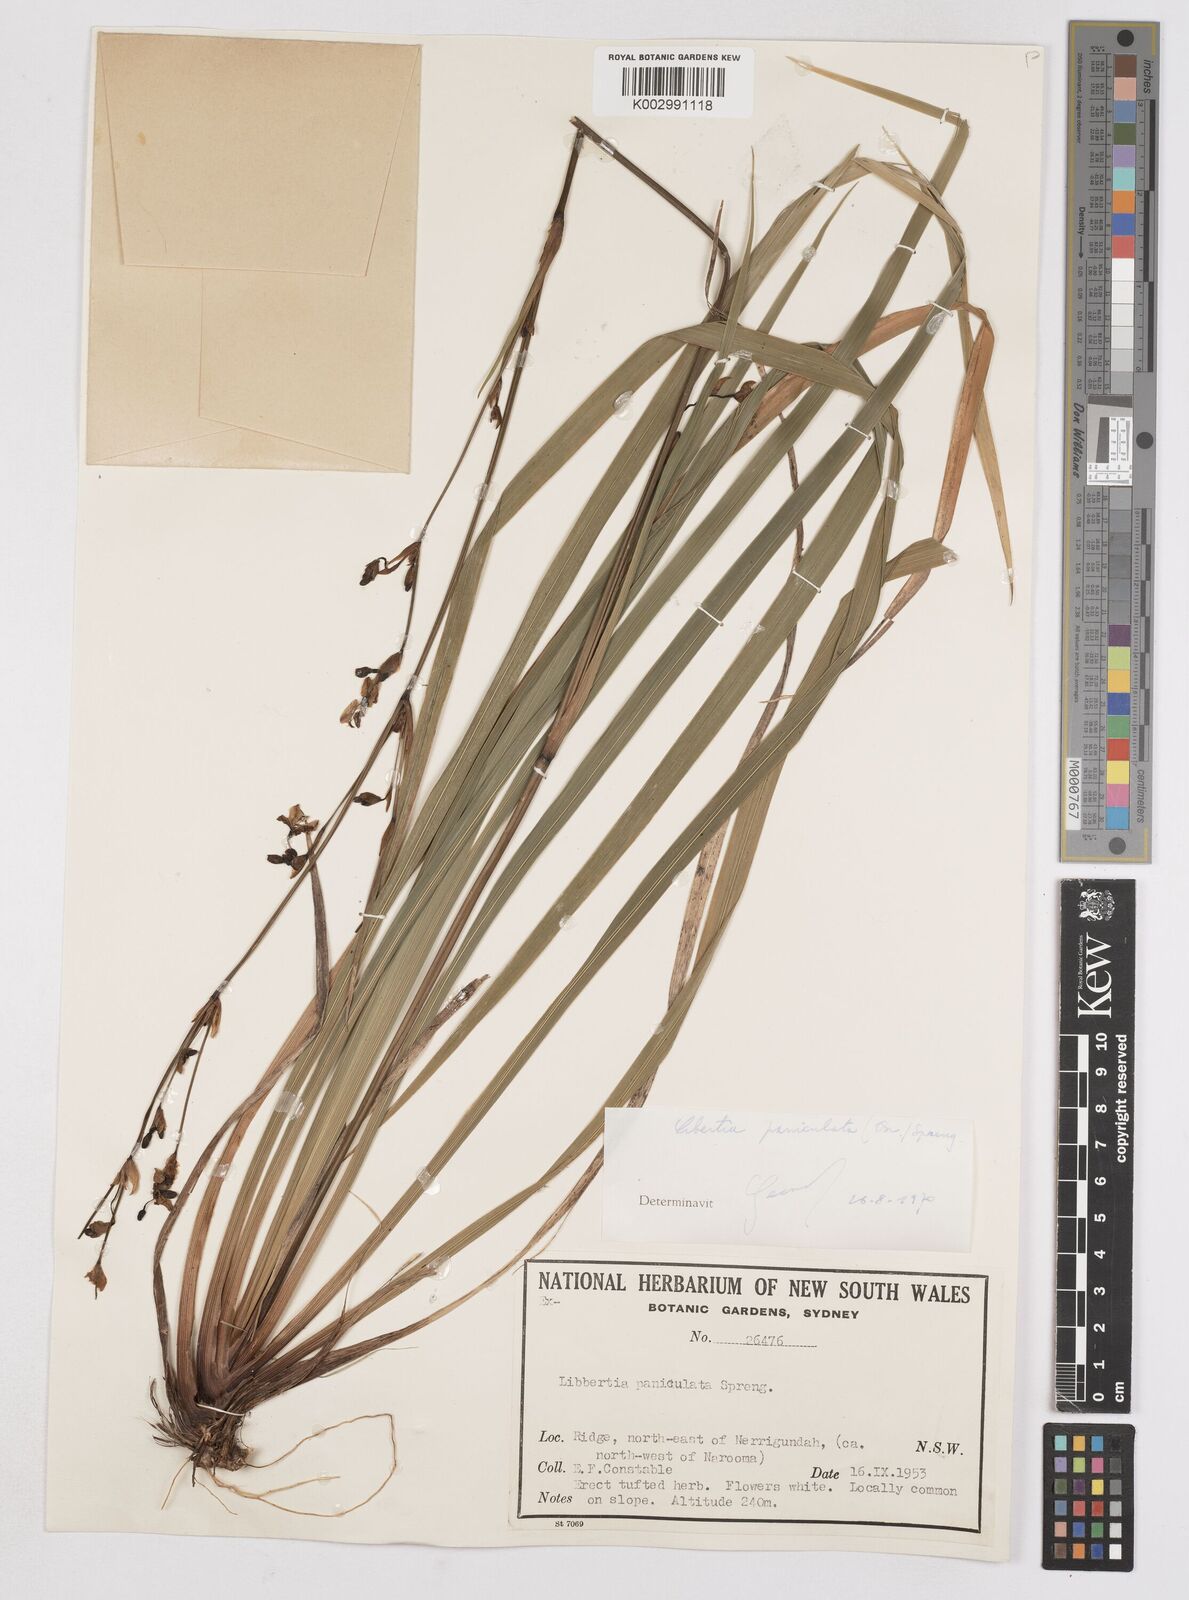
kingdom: Plantae
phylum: Tracheophyta
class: Liliopsida
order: Asparagales
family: Iridaceae
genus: Libertia
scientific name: Libertia paniculata
